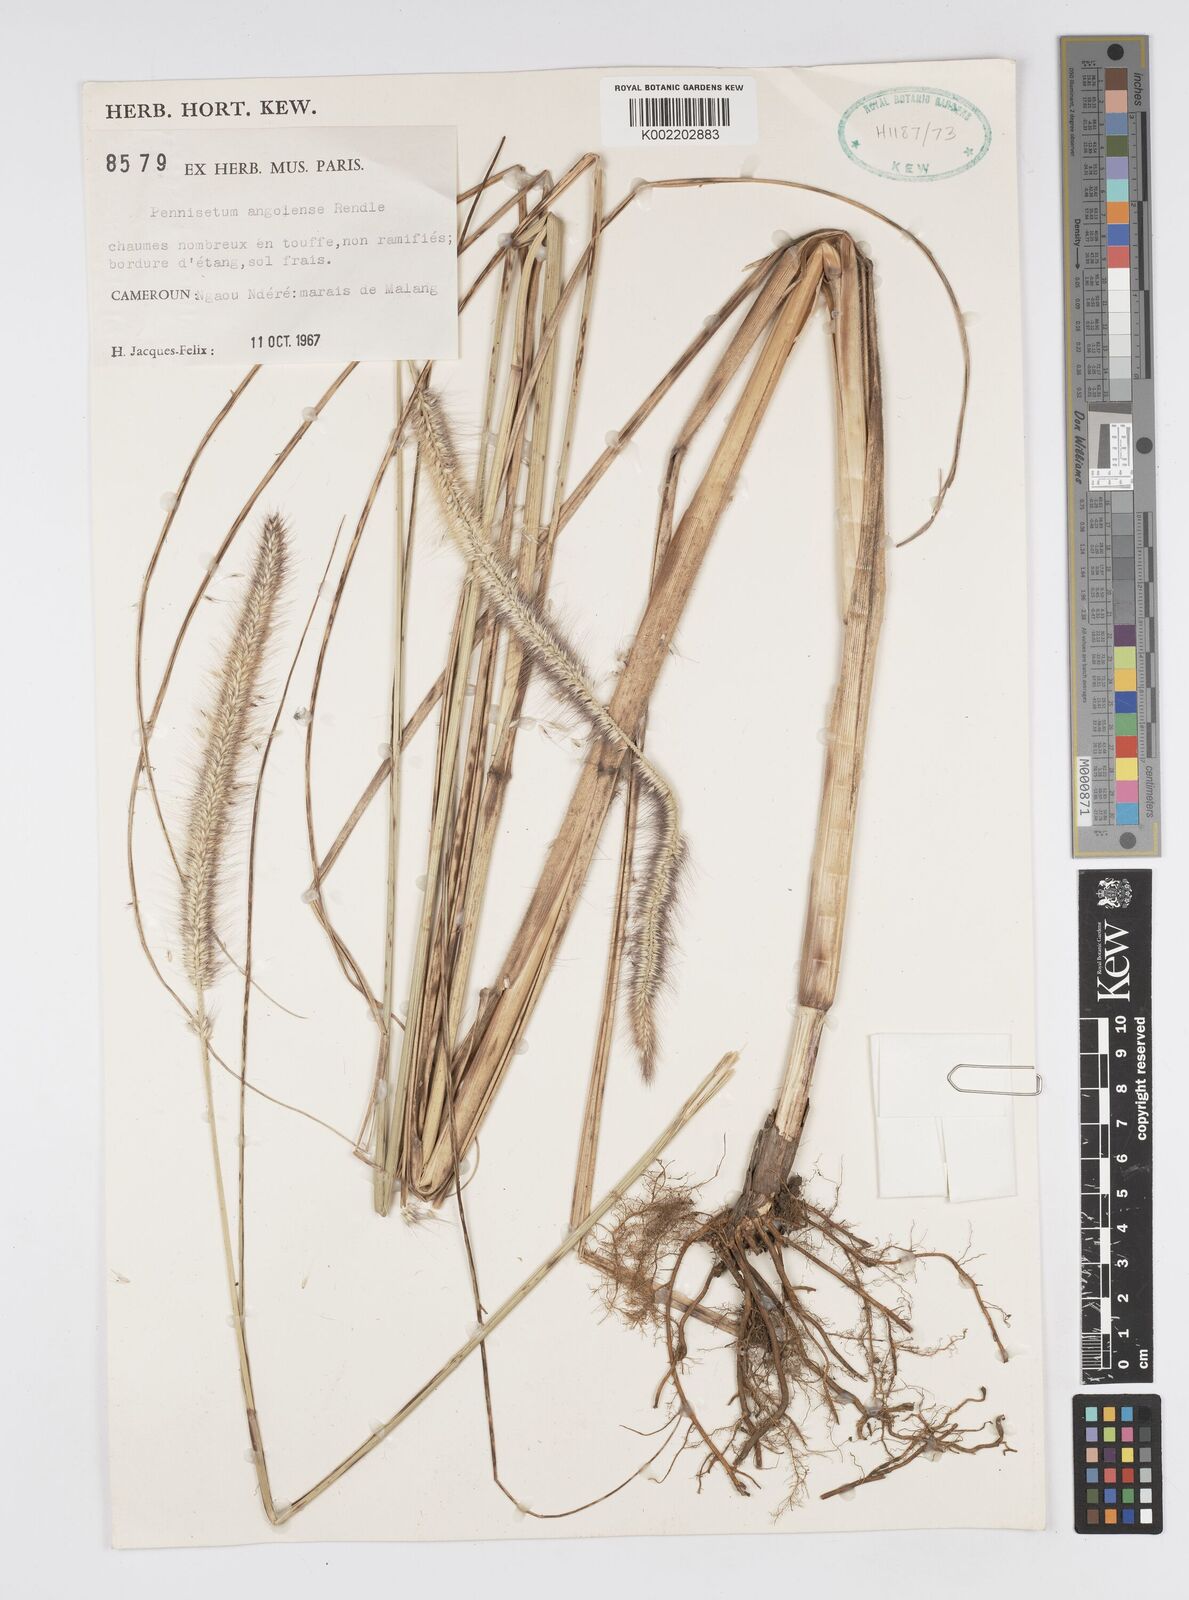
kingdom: Plantae
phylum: Tracheophyta
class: Liliopsida
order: Poales
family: Poaceae
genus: Cenchrus
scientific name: Cenchrus caudatus
